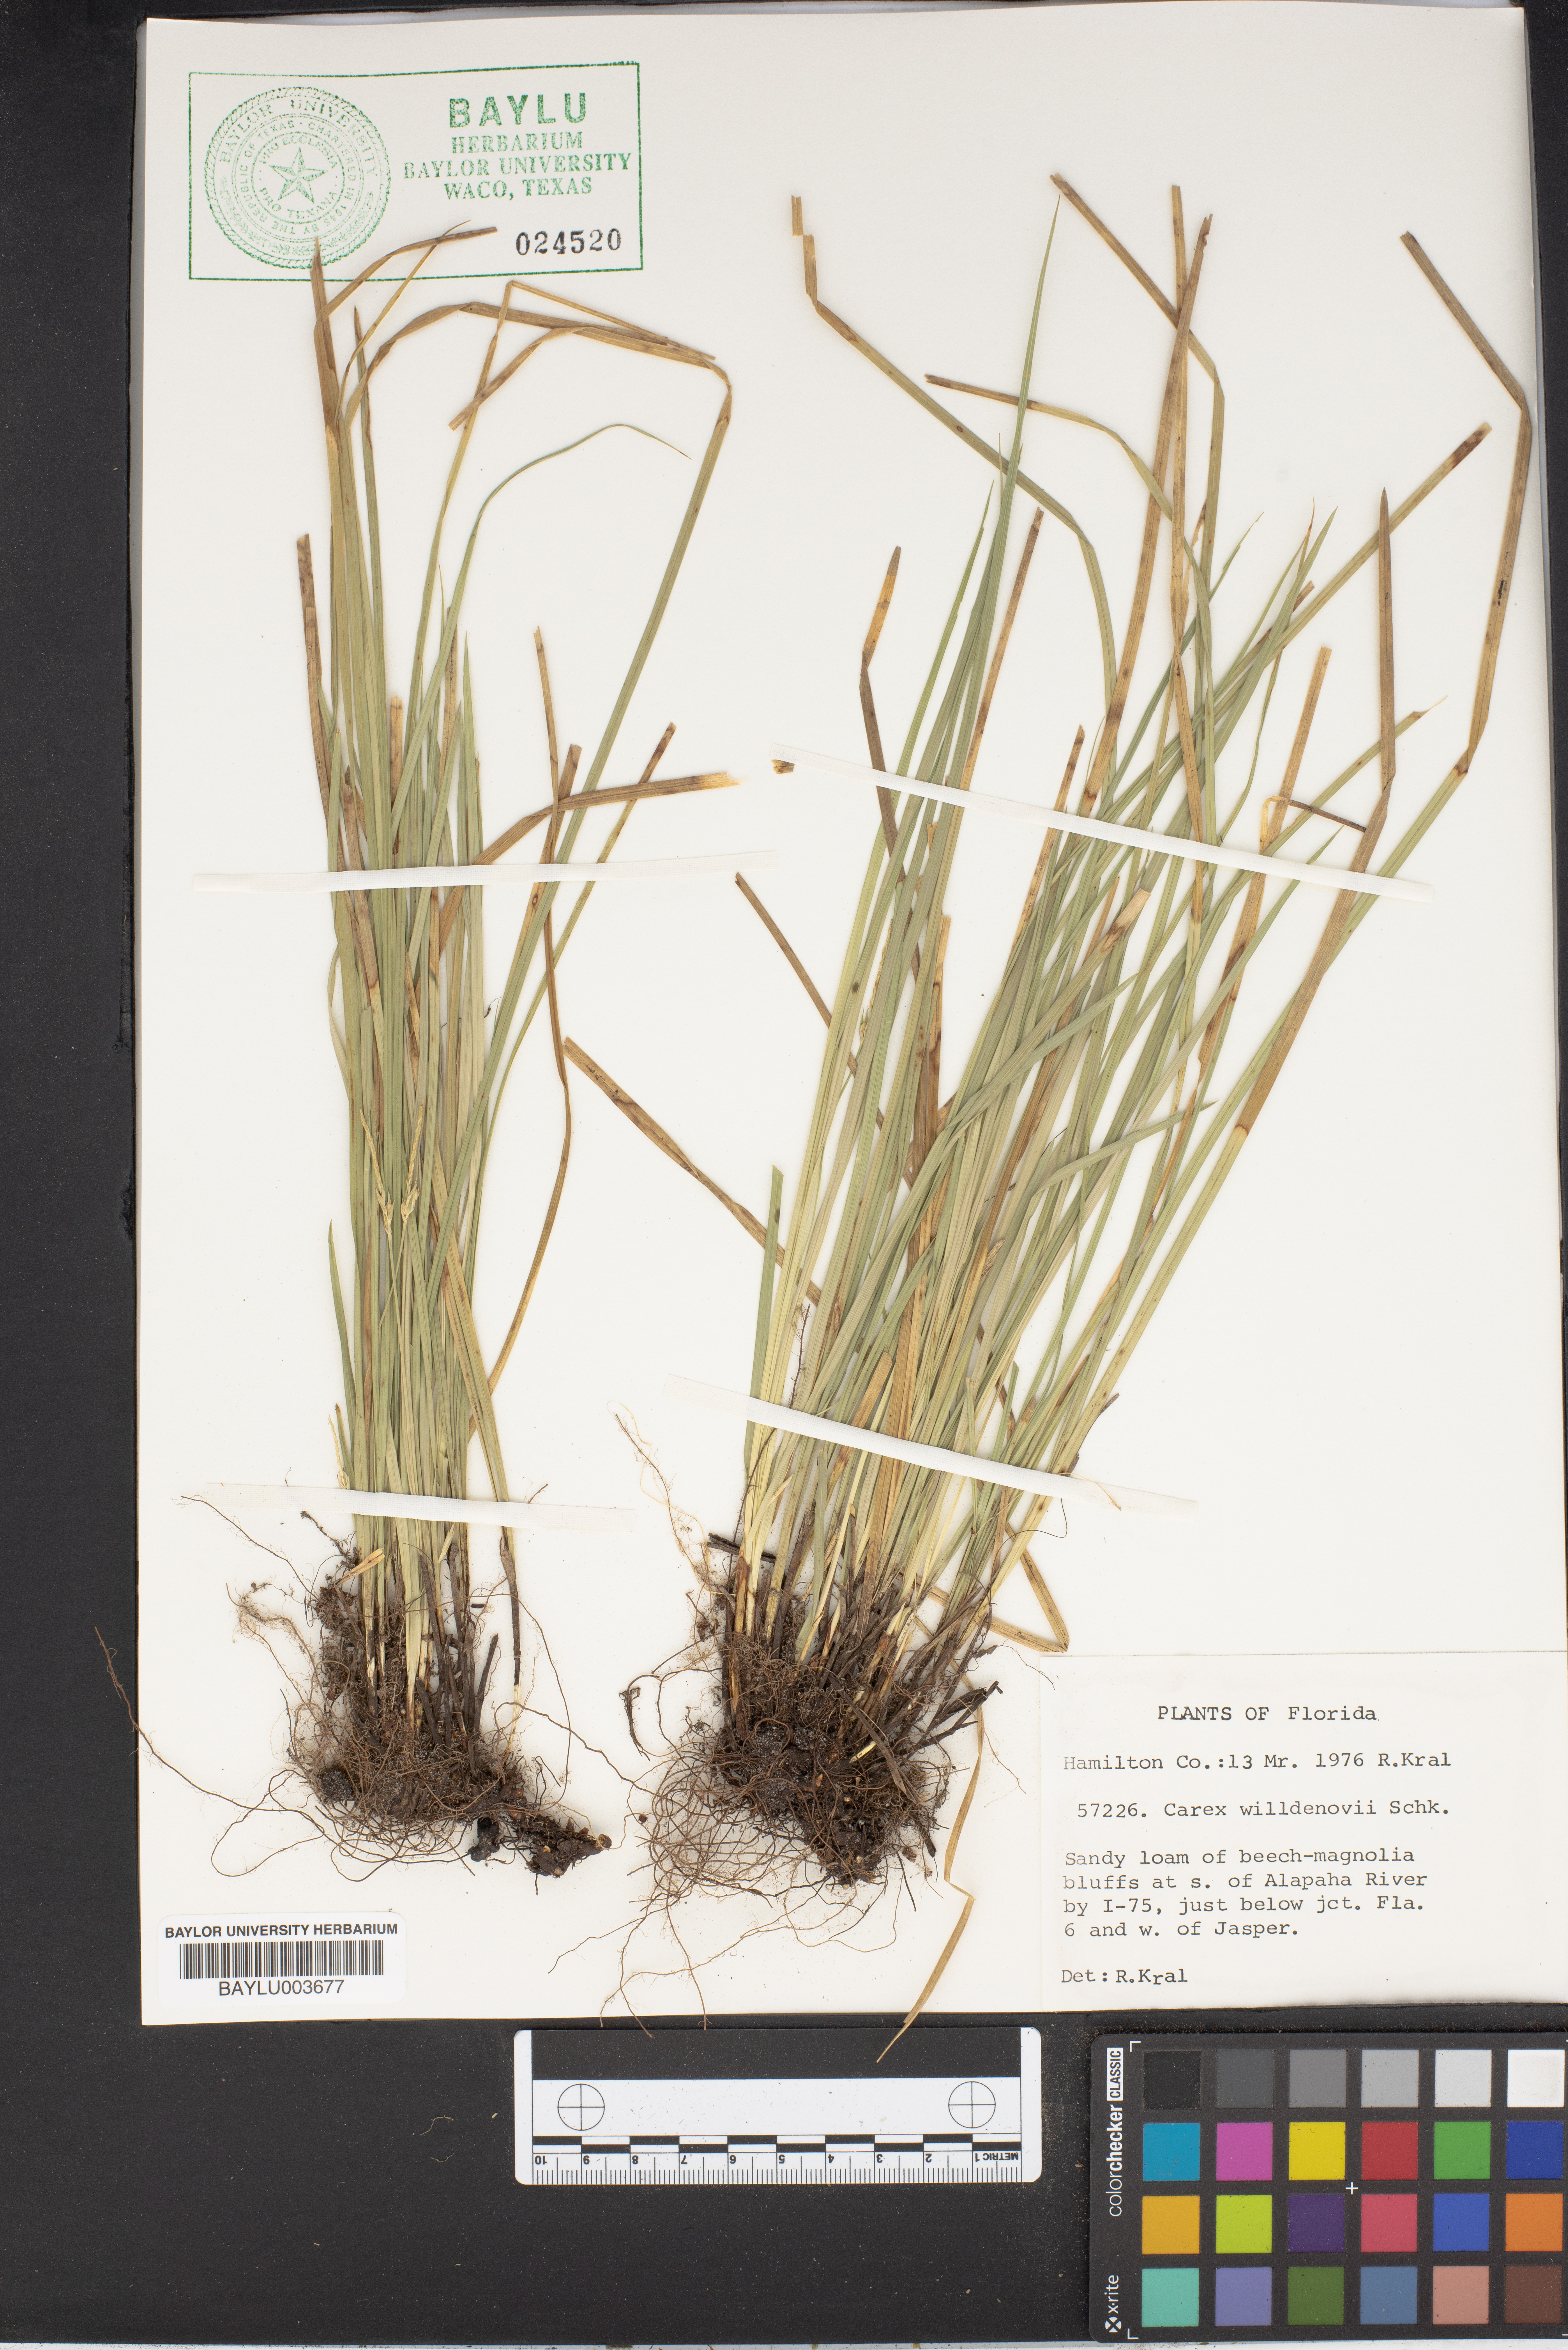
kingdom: Plantae
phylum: Tracheophyta
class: Liliopsida
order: Poales
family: Cyperaceae
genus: Carex
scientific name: Carex willdenowii
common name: Willdenow's sedge
